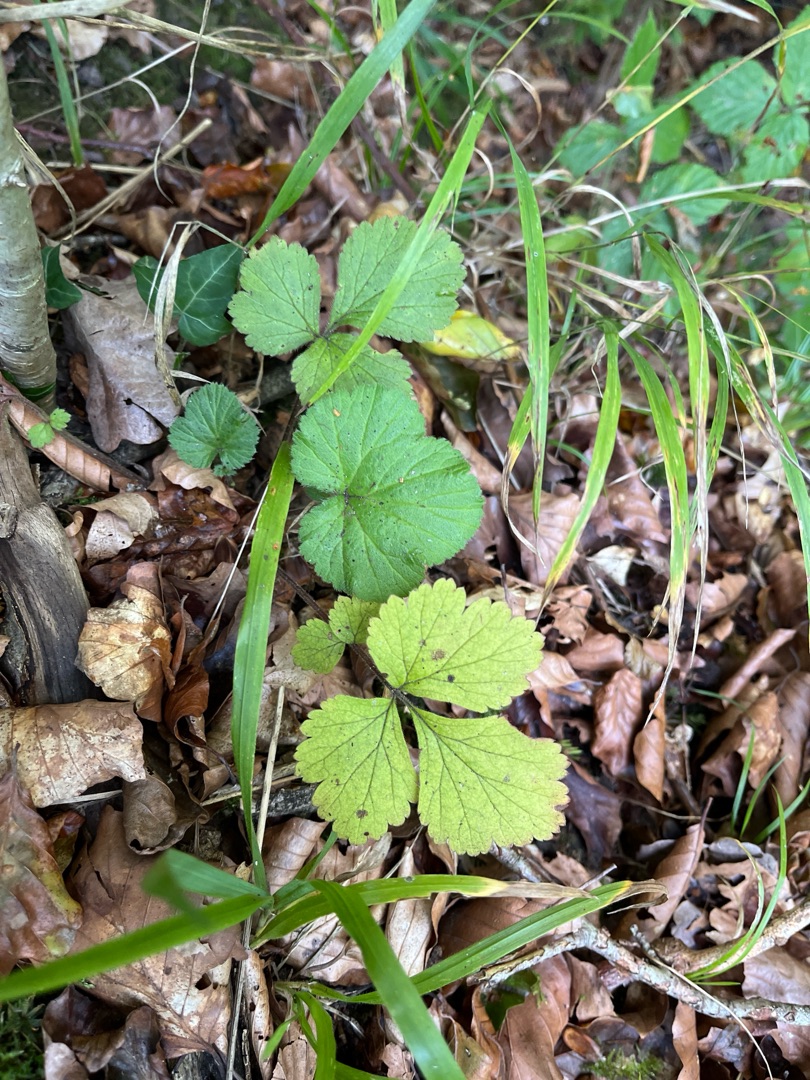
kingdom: Plantae
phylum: Tracheophyta
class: Magnoliopsida
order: Rosales
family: Rosaceae
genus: Geum
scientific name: Geum urbanum
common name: Feber-nellikerod
